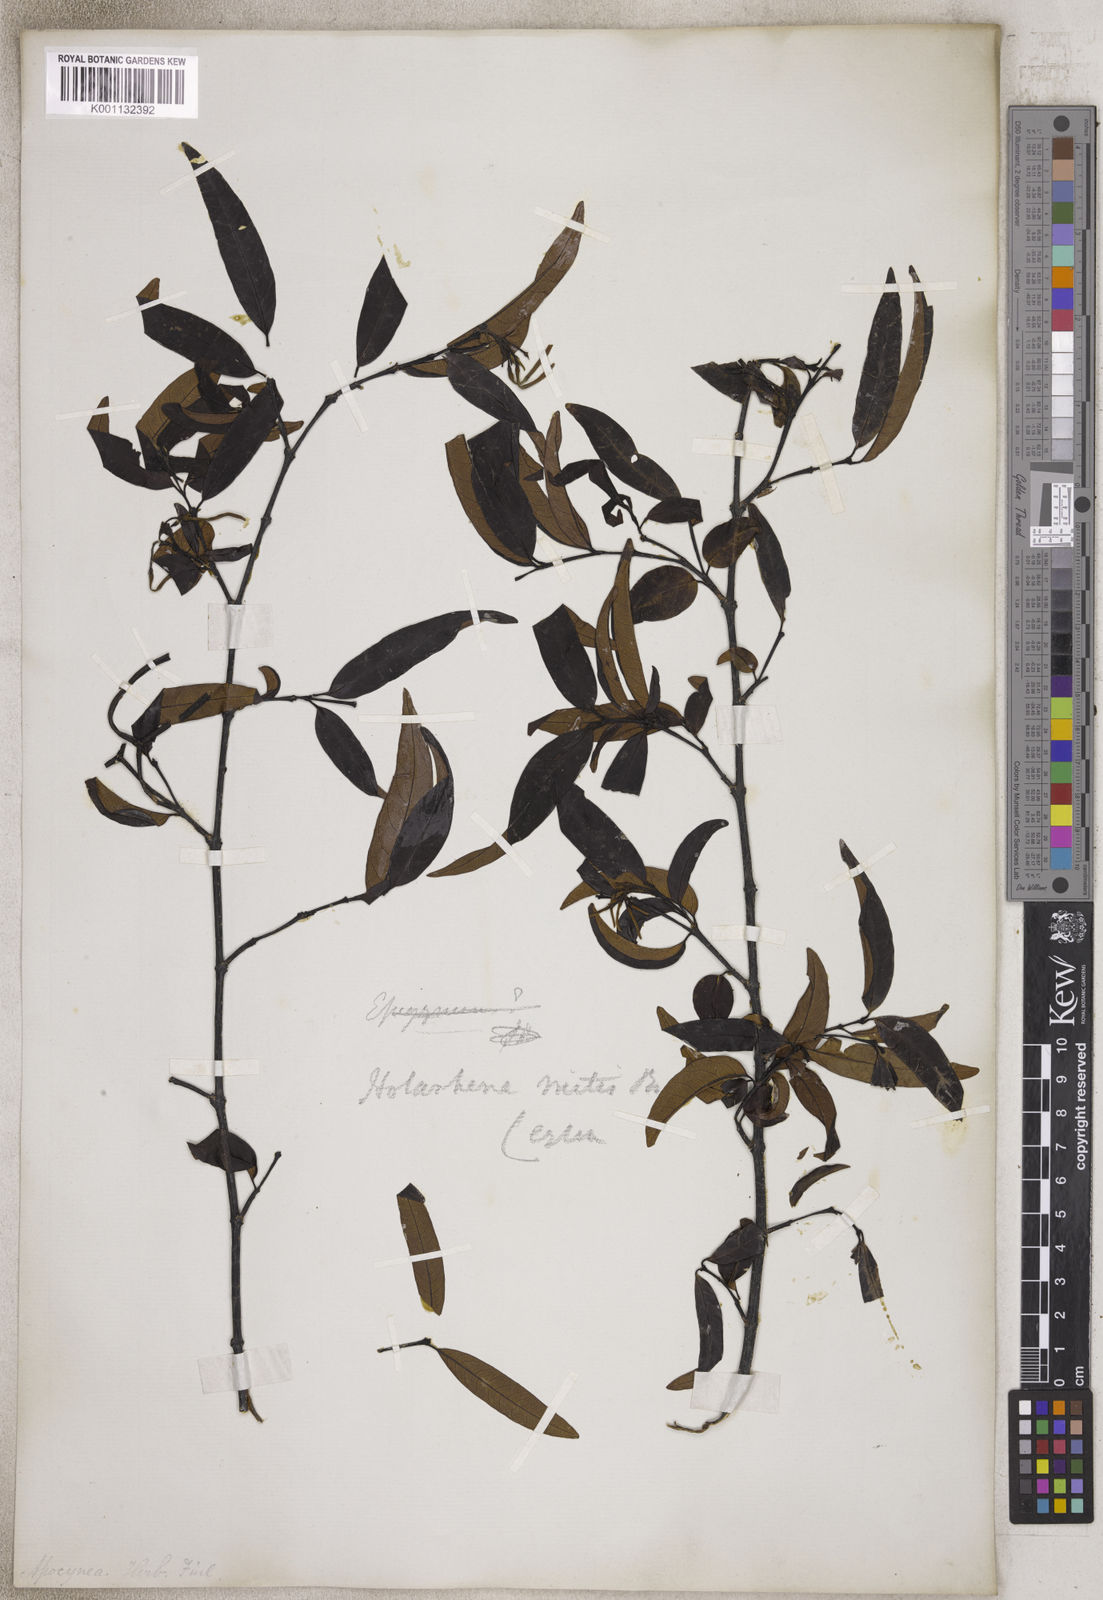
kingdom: Plantae
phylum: Tracheophyta
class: Magnoliopsida
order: Gentianales
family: Apocynaceae
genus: Holarrhena
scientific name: Holarrhena
